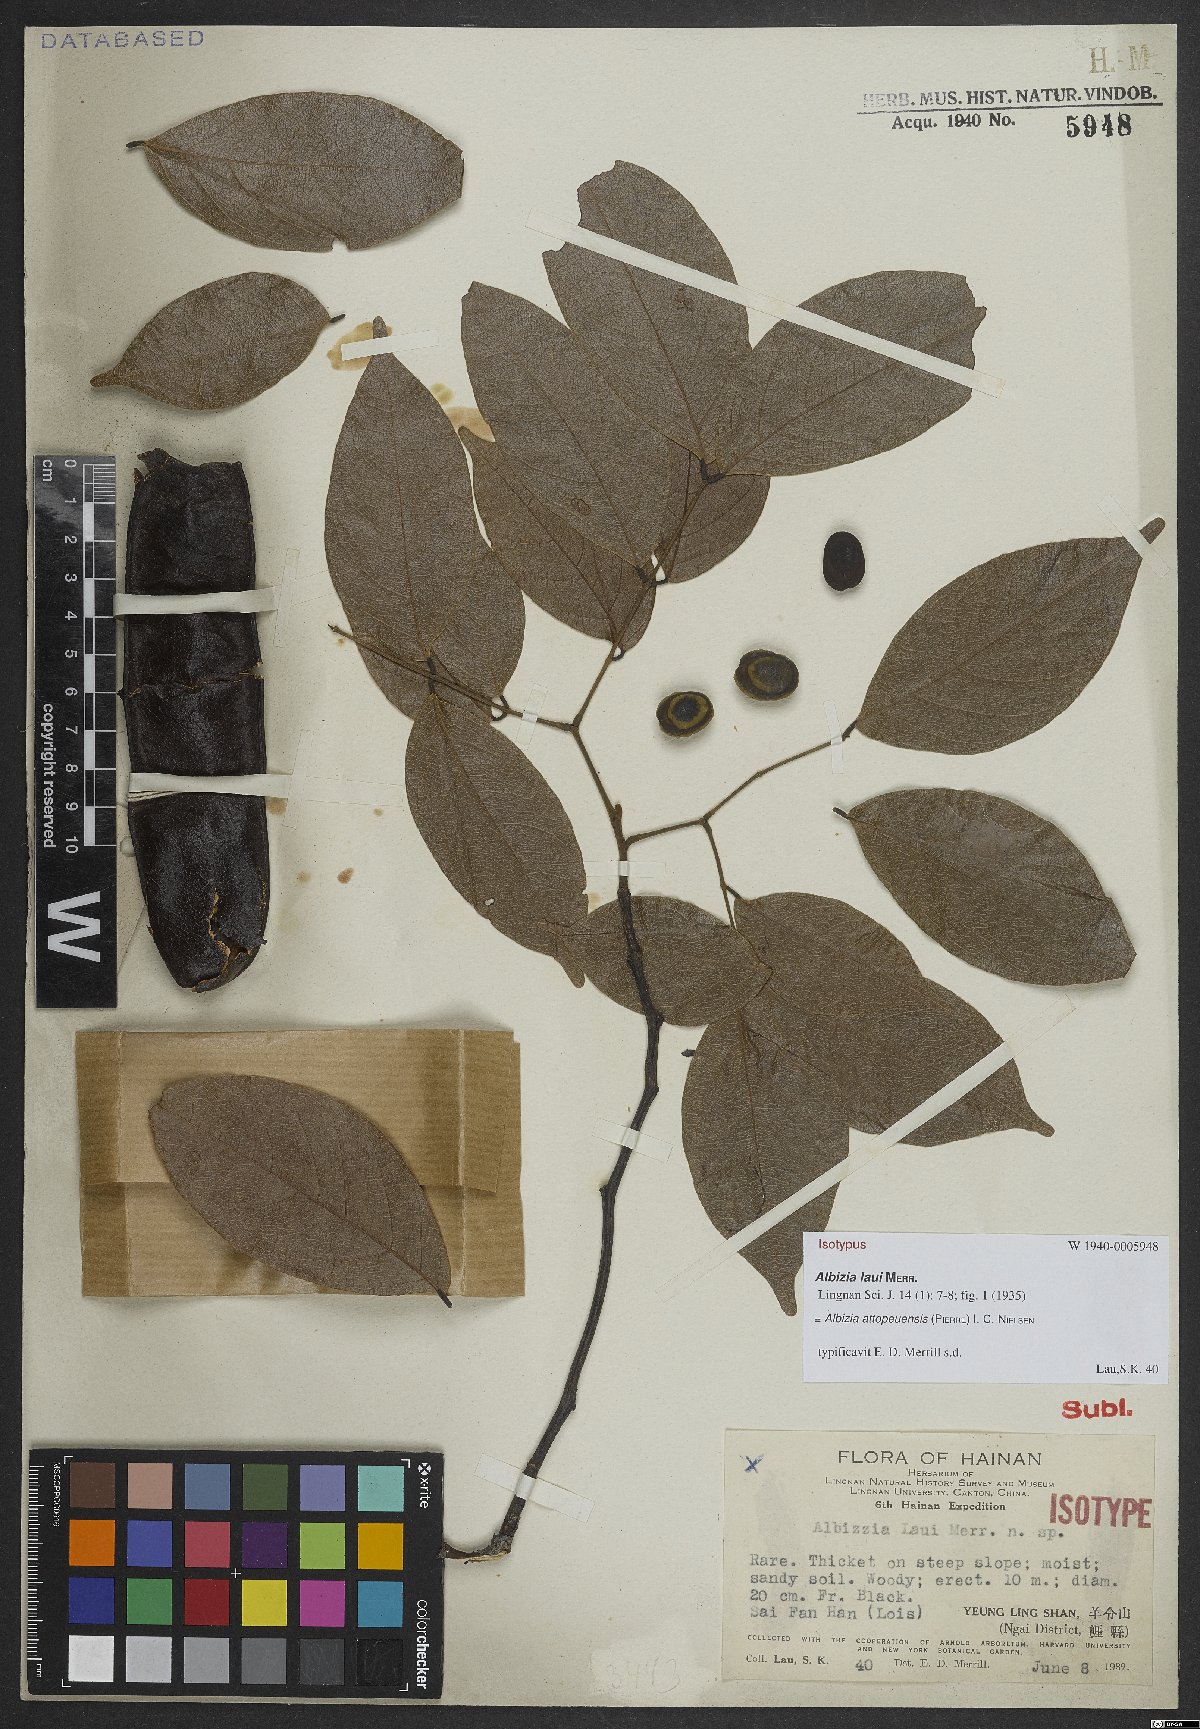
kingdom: Plantae
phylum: Tracheophyta
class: Magnoliopsida
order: Fabales
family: Fabaceae
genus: Albizia
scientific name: Albizia attopeuensis
